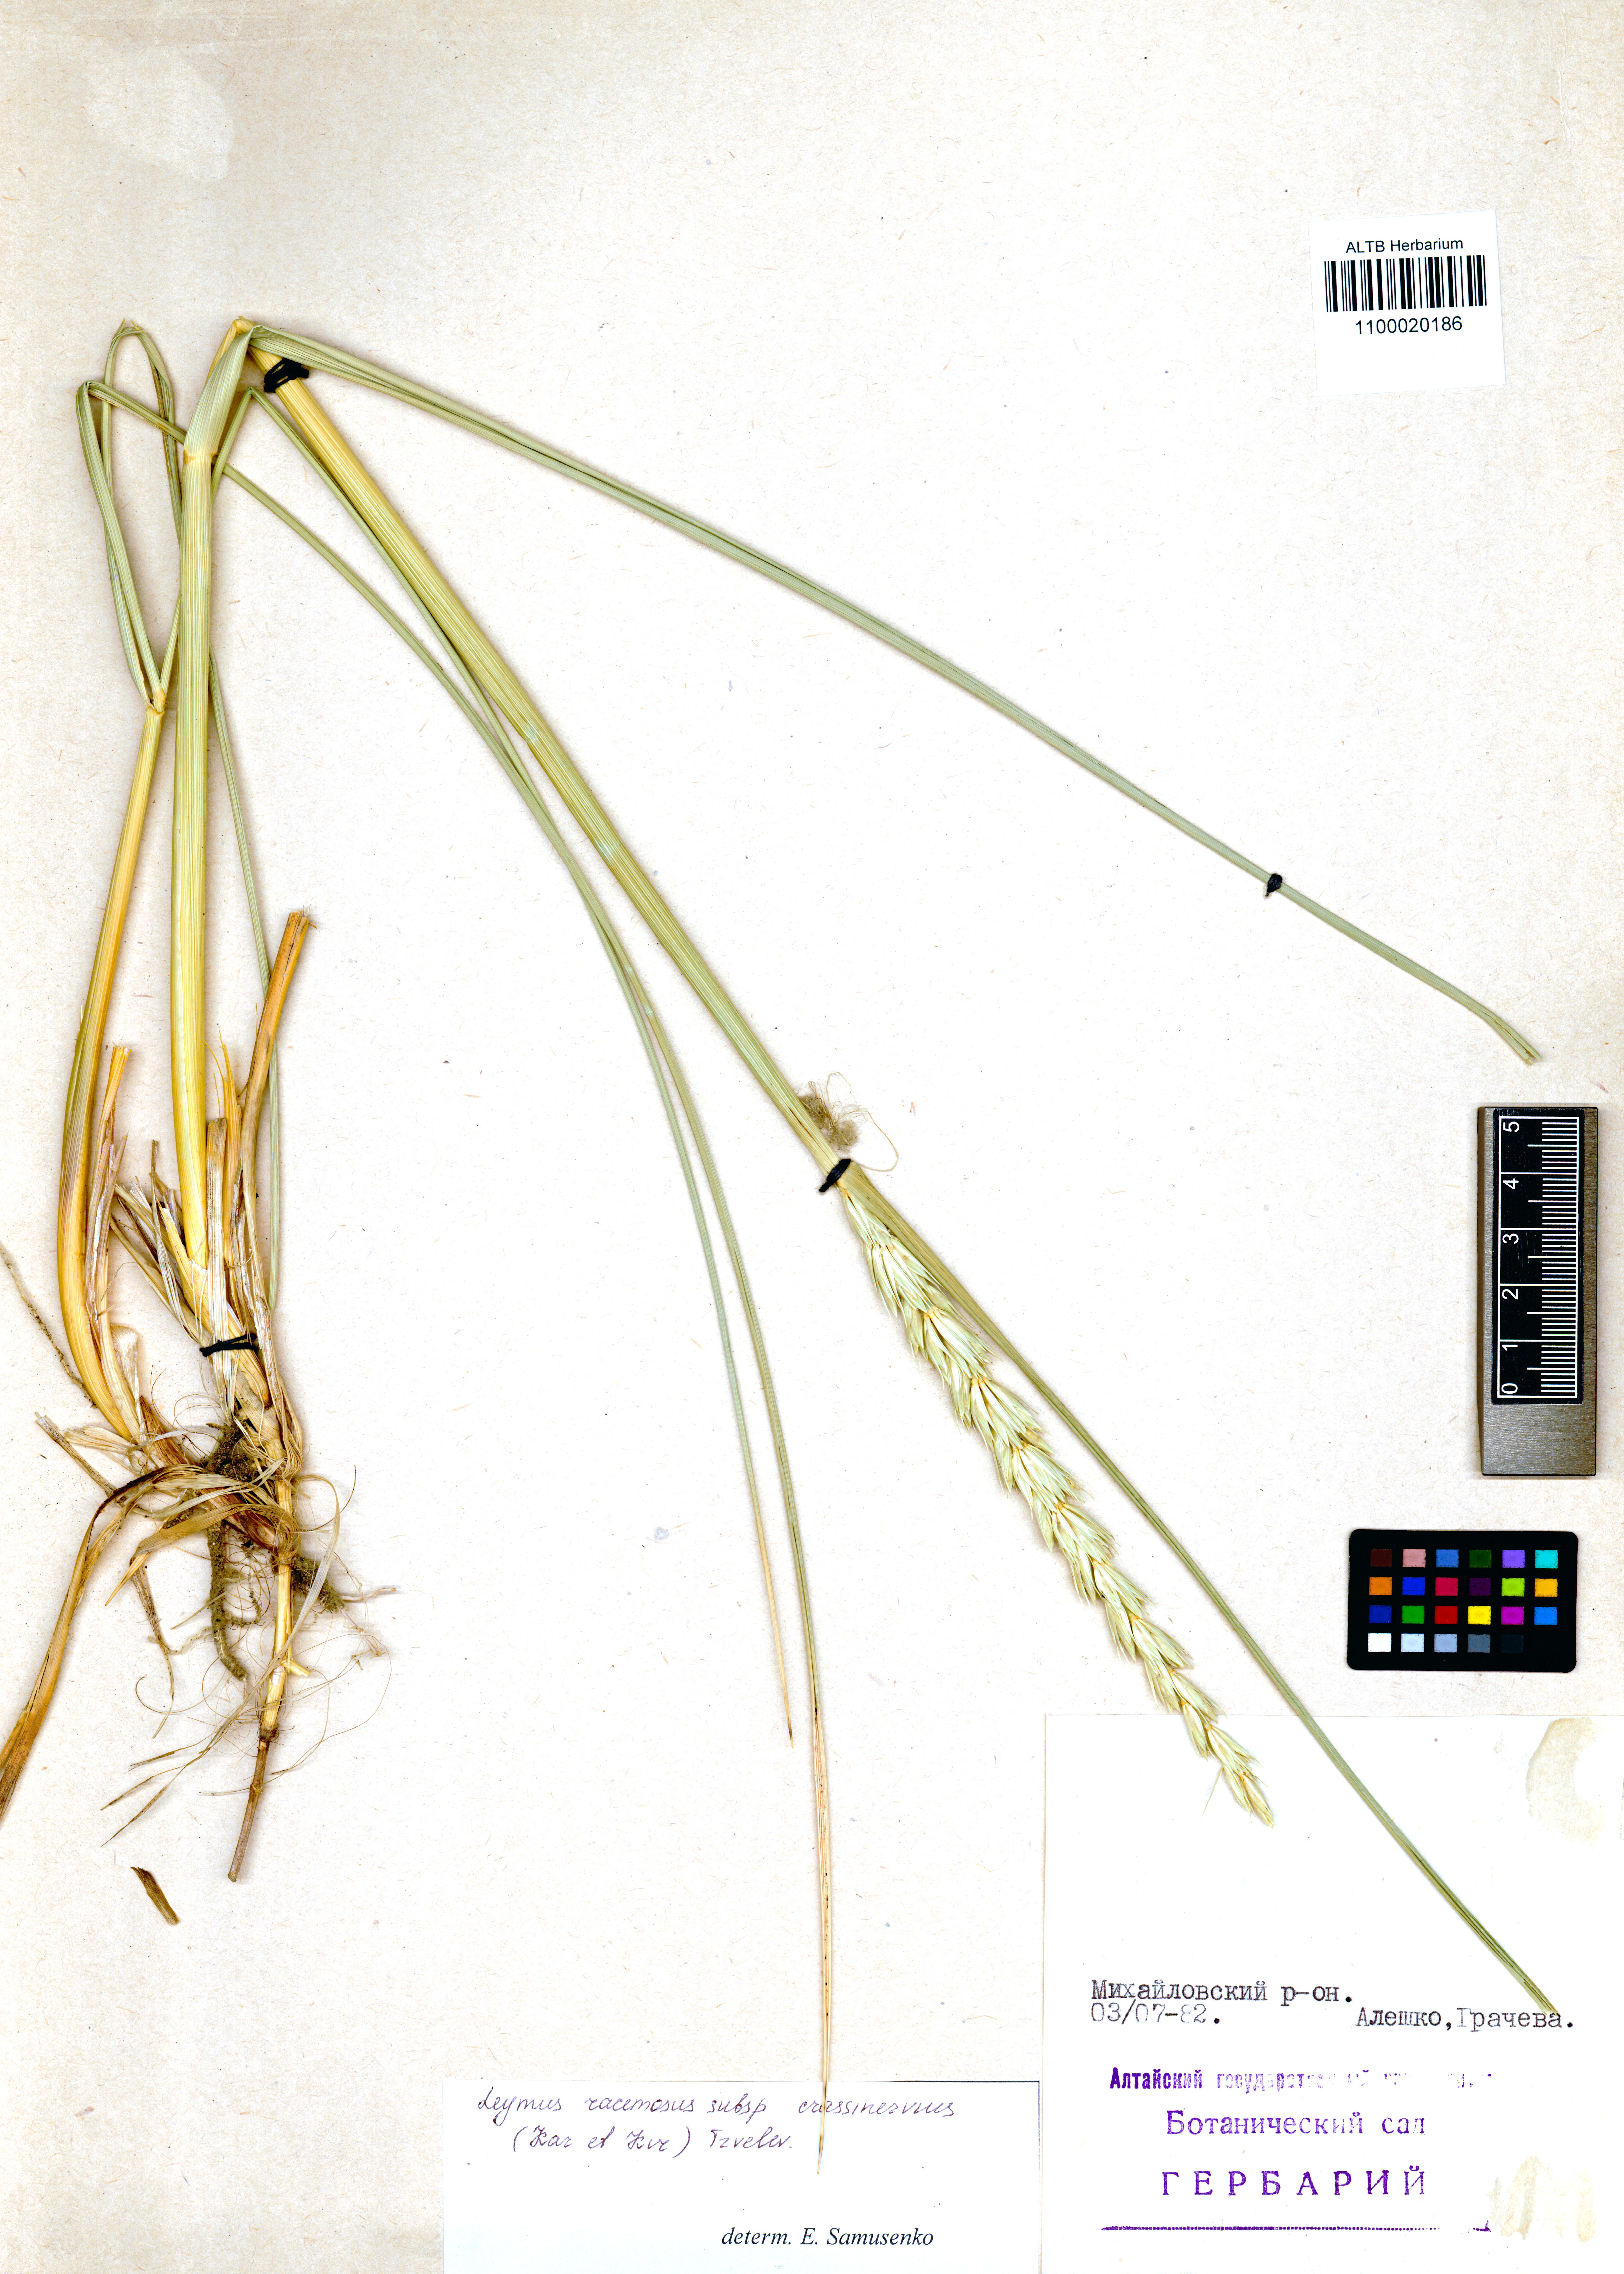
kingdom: Plantae
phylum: Tracheophyta
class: Liliopsida
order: Poales
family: Poaceae
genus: Leymus
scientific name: Leymus racemosus
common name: Mammoth wildrye
